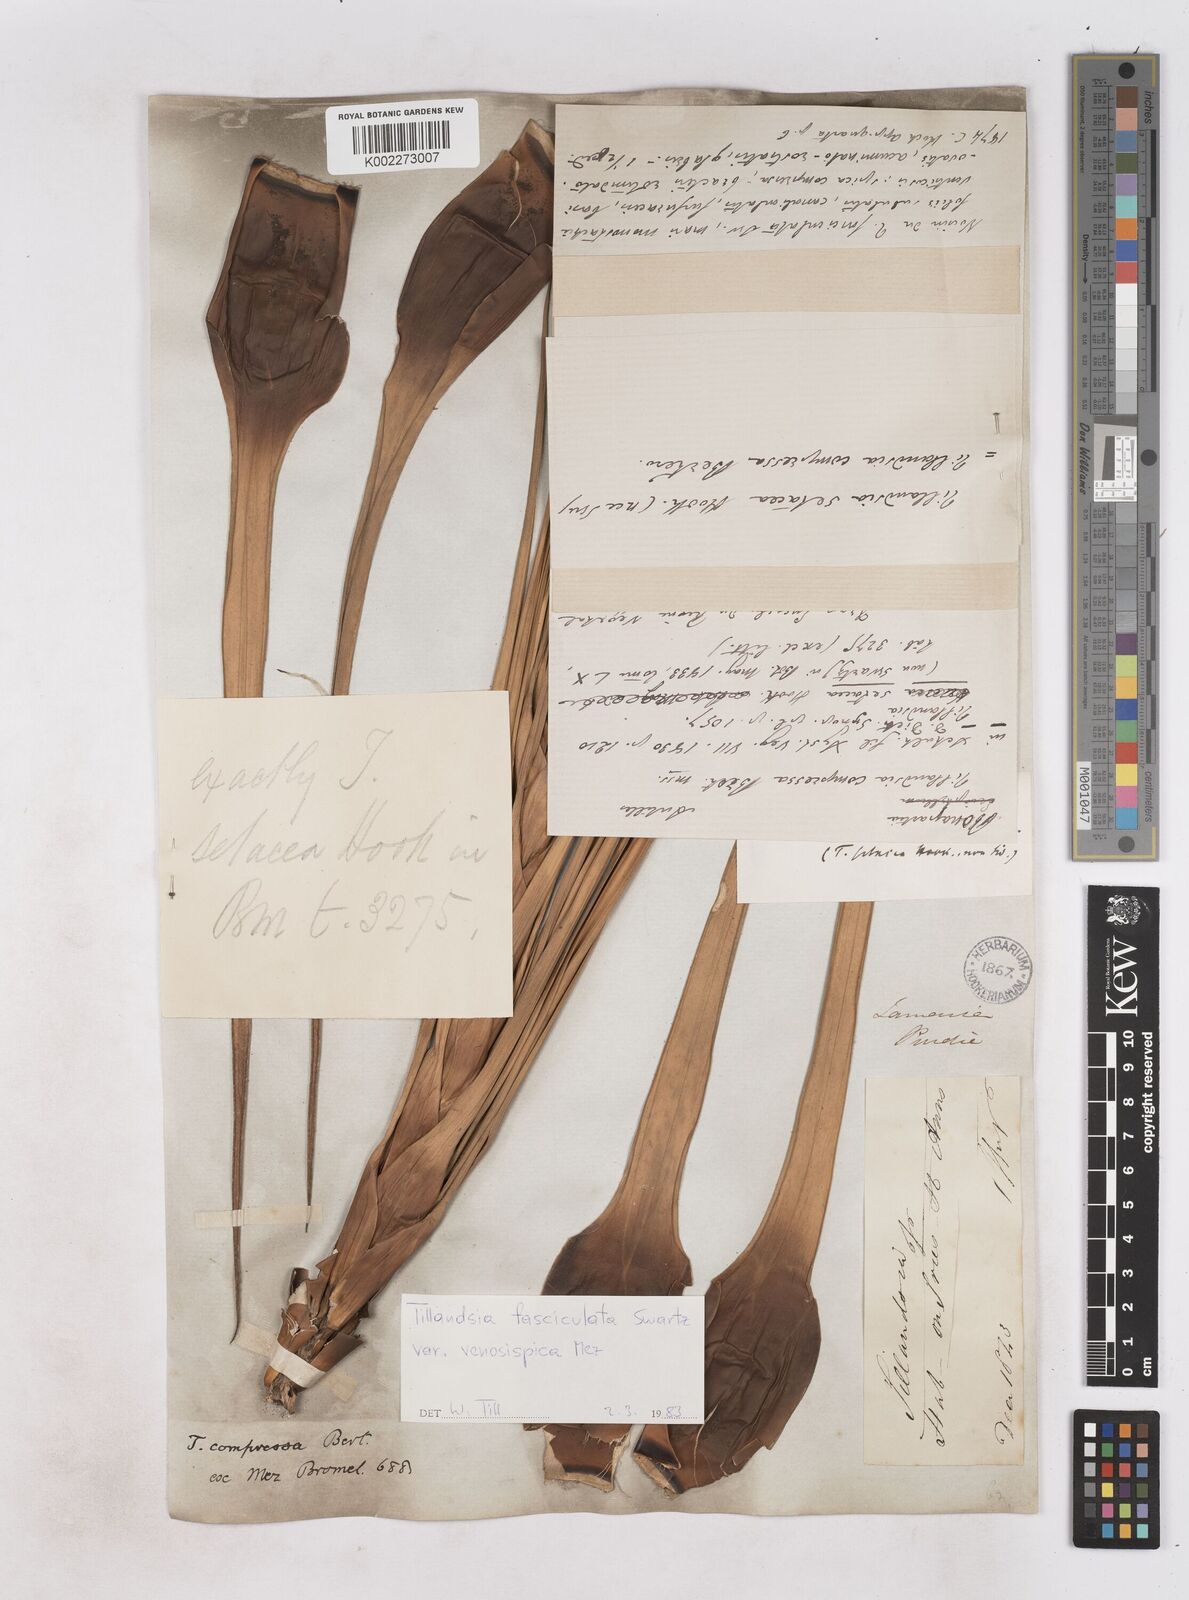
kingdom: Plantae
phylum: Tracheophyta
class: Liliopsida
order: Poales
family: Bromeliaceae
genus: Tillandsia
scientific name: Tillandsia compressa
